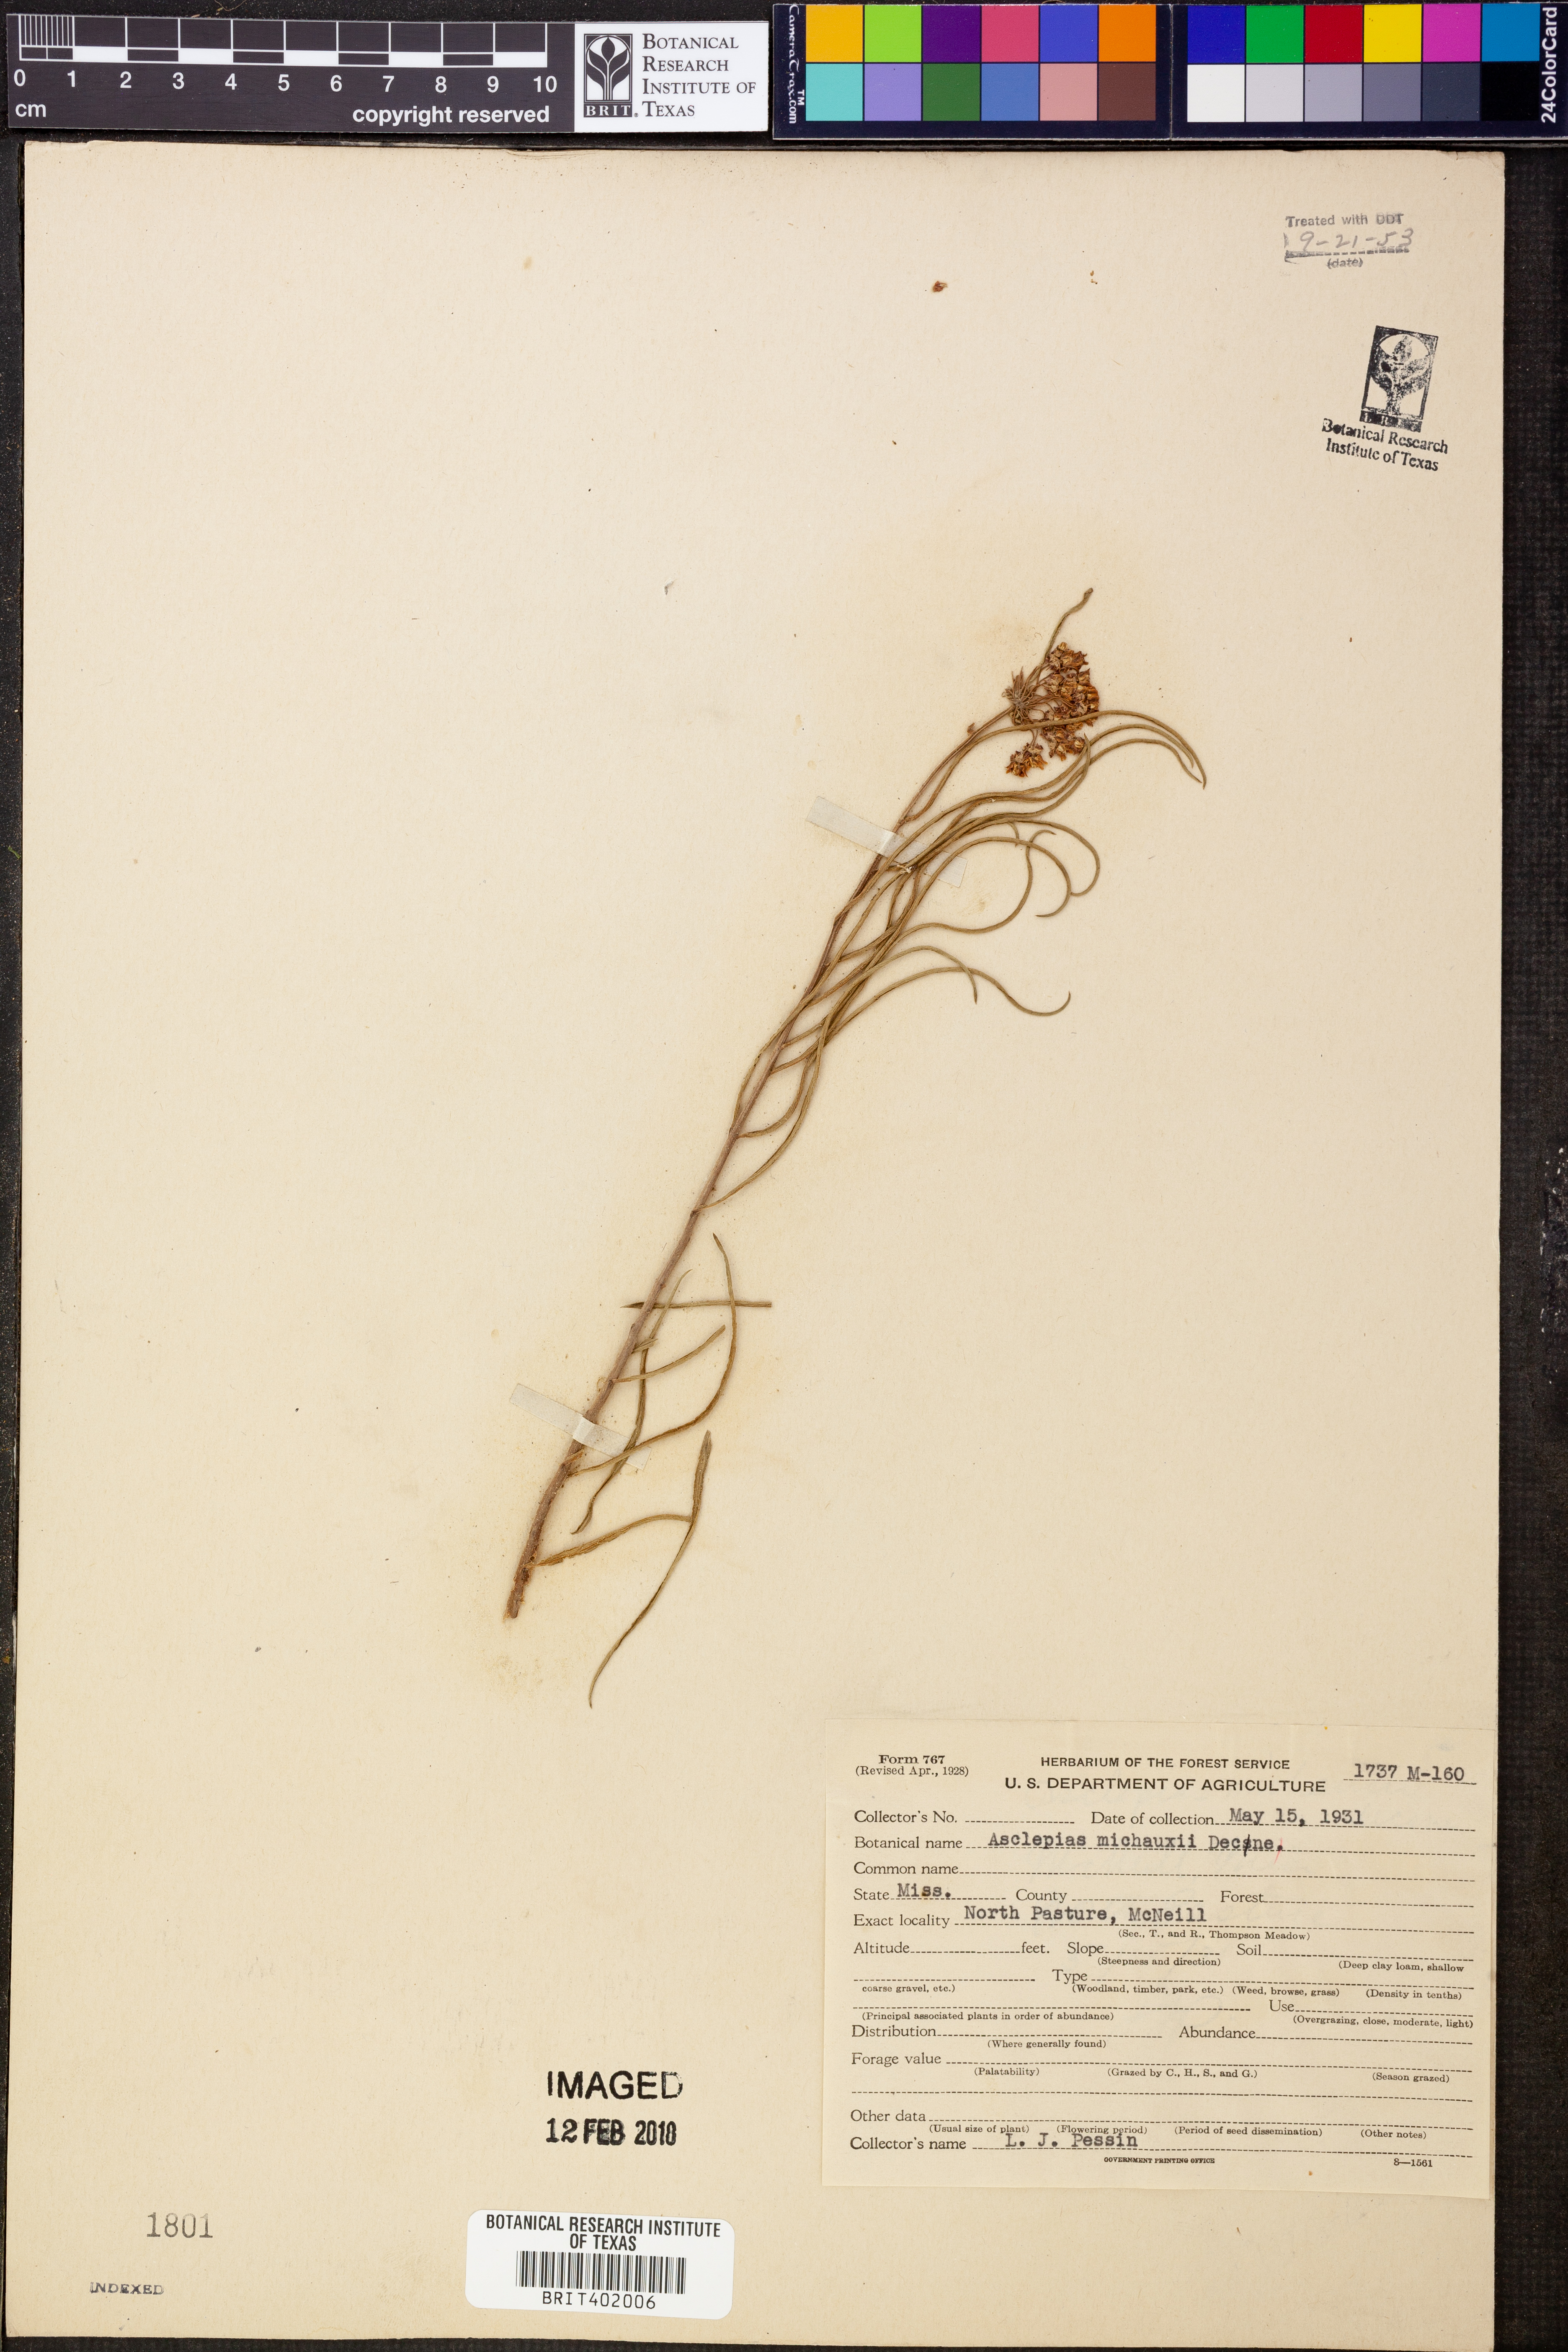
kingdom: Plantae
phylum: Tracheophyta
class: Magnoliopsida
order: Gentianales
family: Apocynaceae
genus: Asclepias
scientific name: Asclepias michauxii
